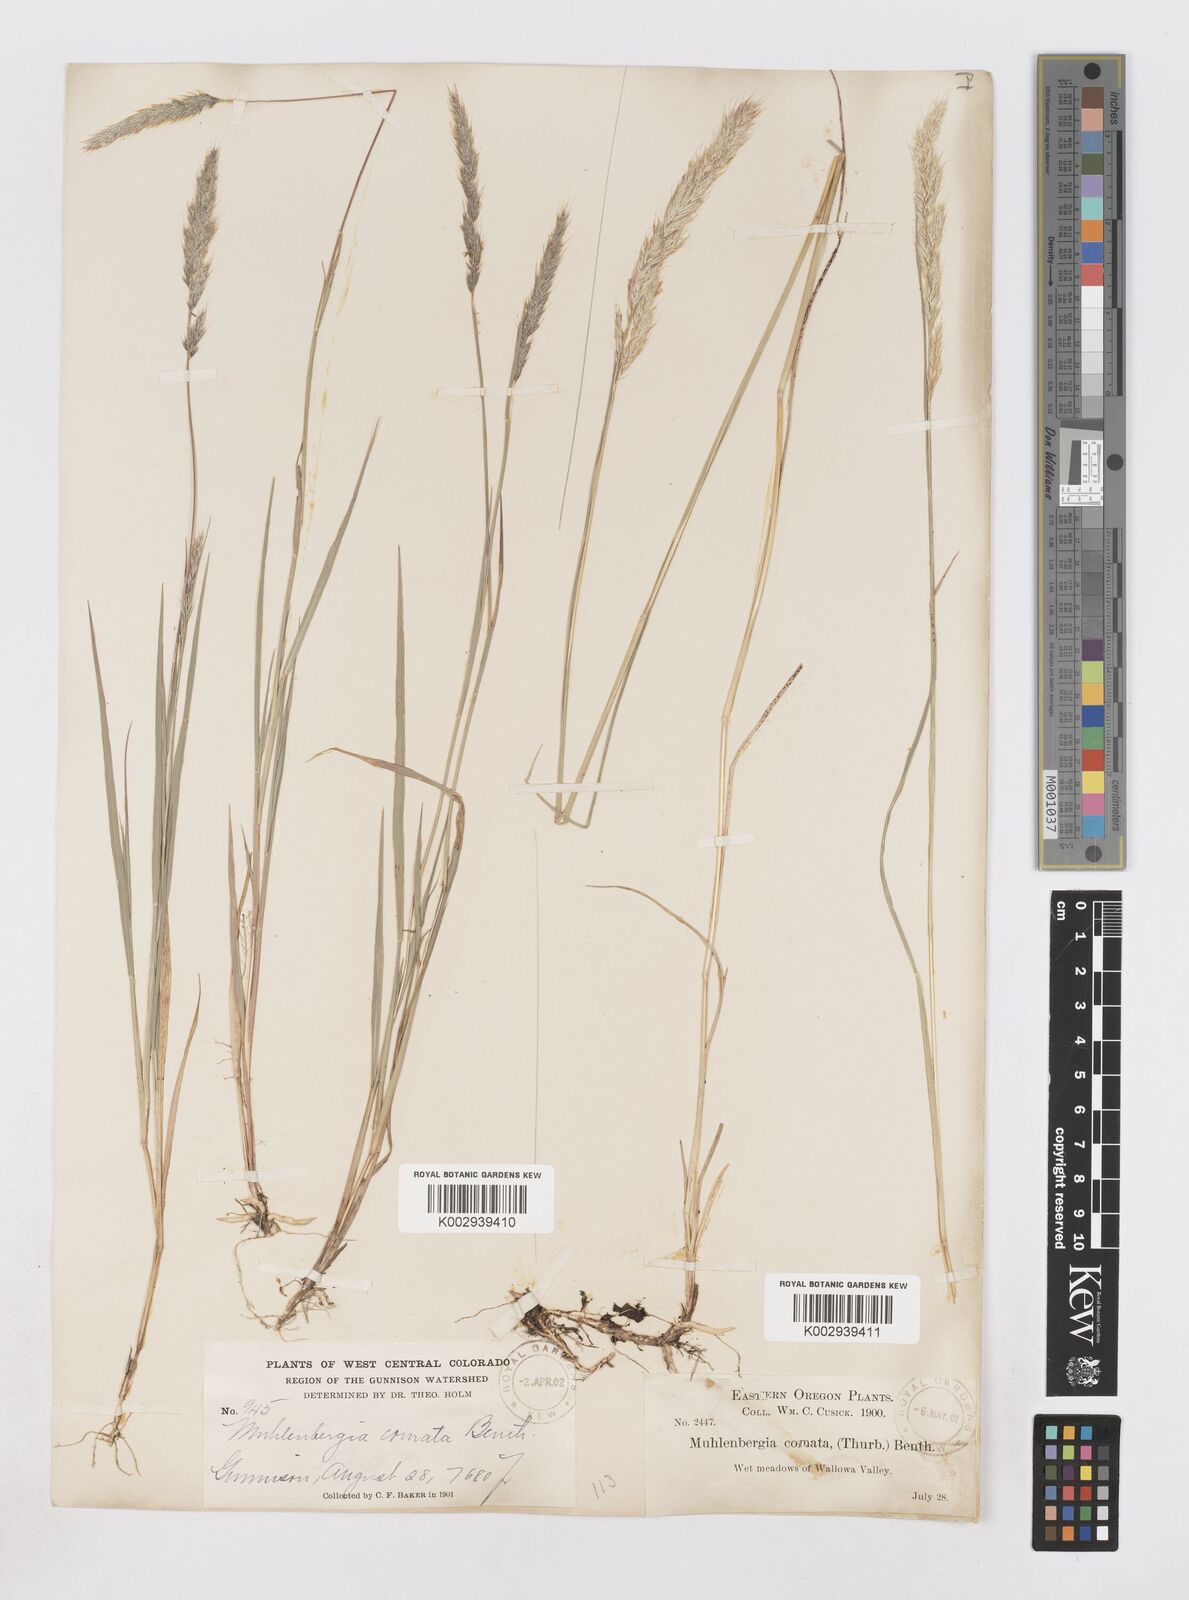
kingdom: Plantae
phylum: Tracheophyta
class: Liliopsida
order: Poales
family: Poaceae
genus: Muhlenbergia
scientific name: Muhlenbergia andina
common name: Foxtail muhly
